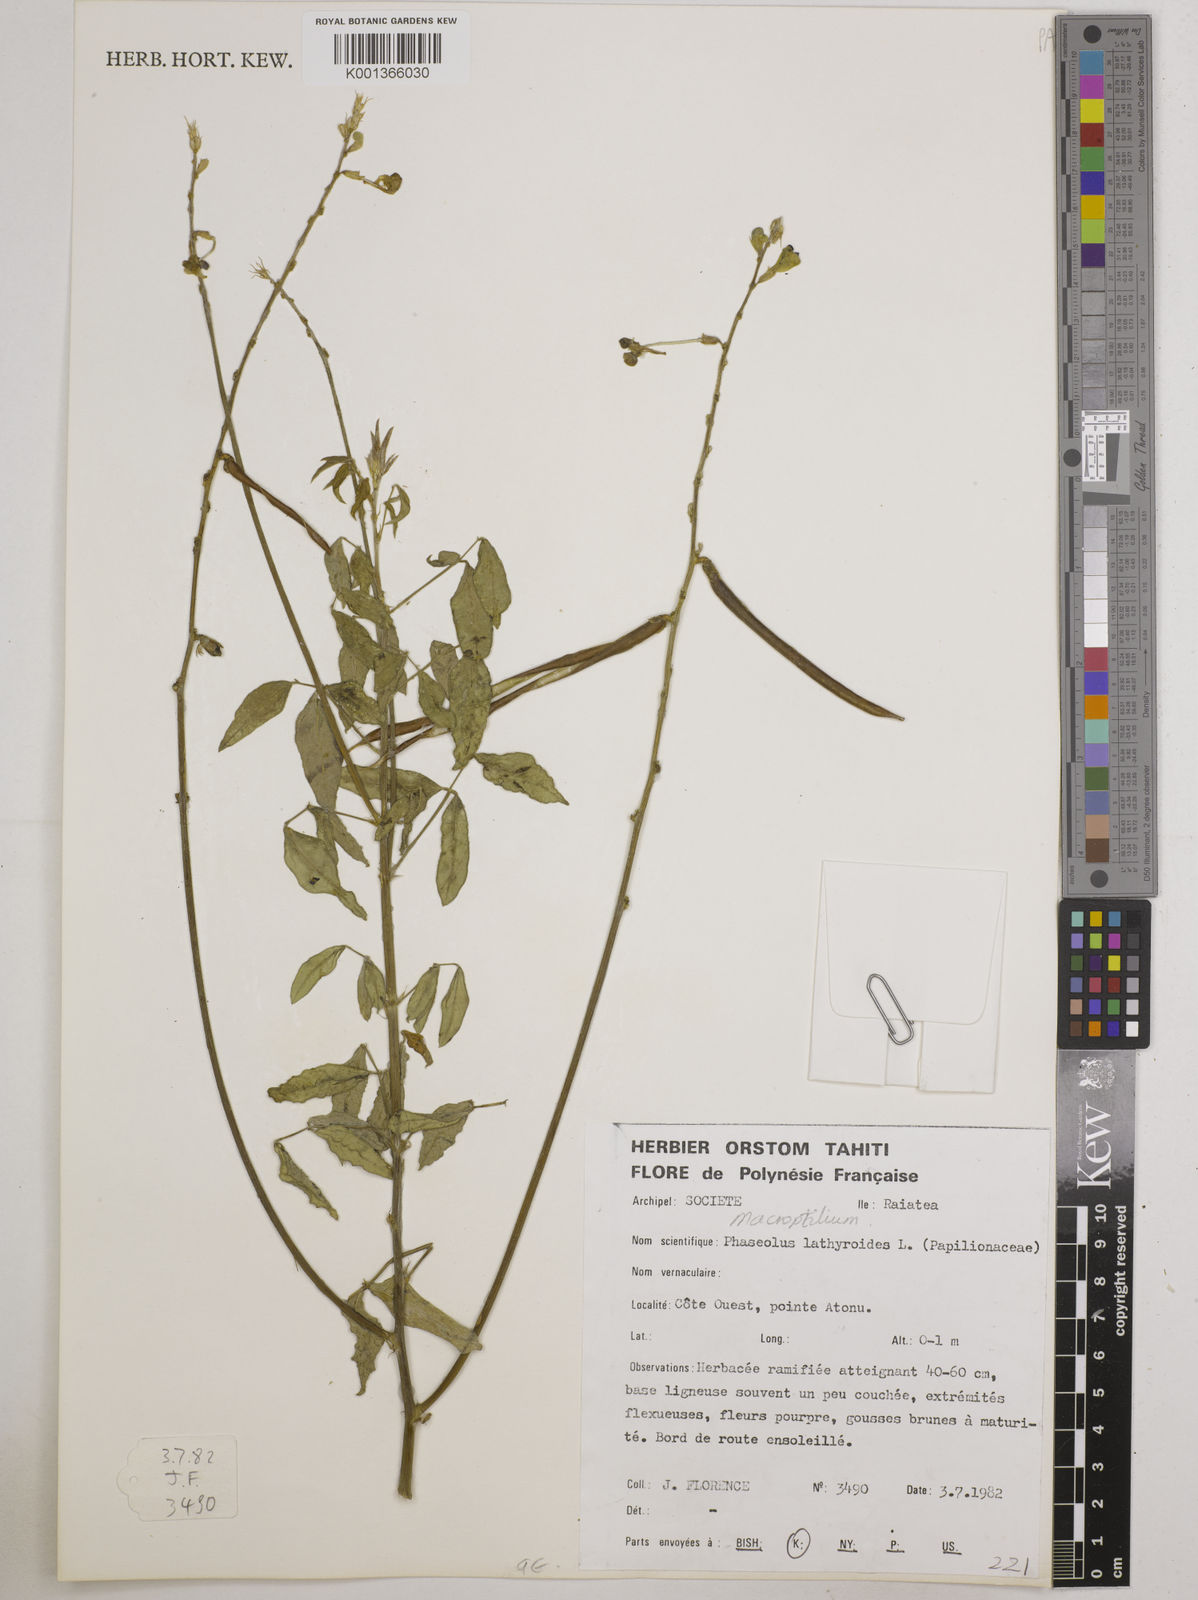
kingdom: Plantae
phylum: Tracheophyta
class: Magnoliopsida
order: Fabales
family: Fabaceae
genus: Macroptilium
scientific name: Macroptilium lathyroides
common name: Wild bushbean
